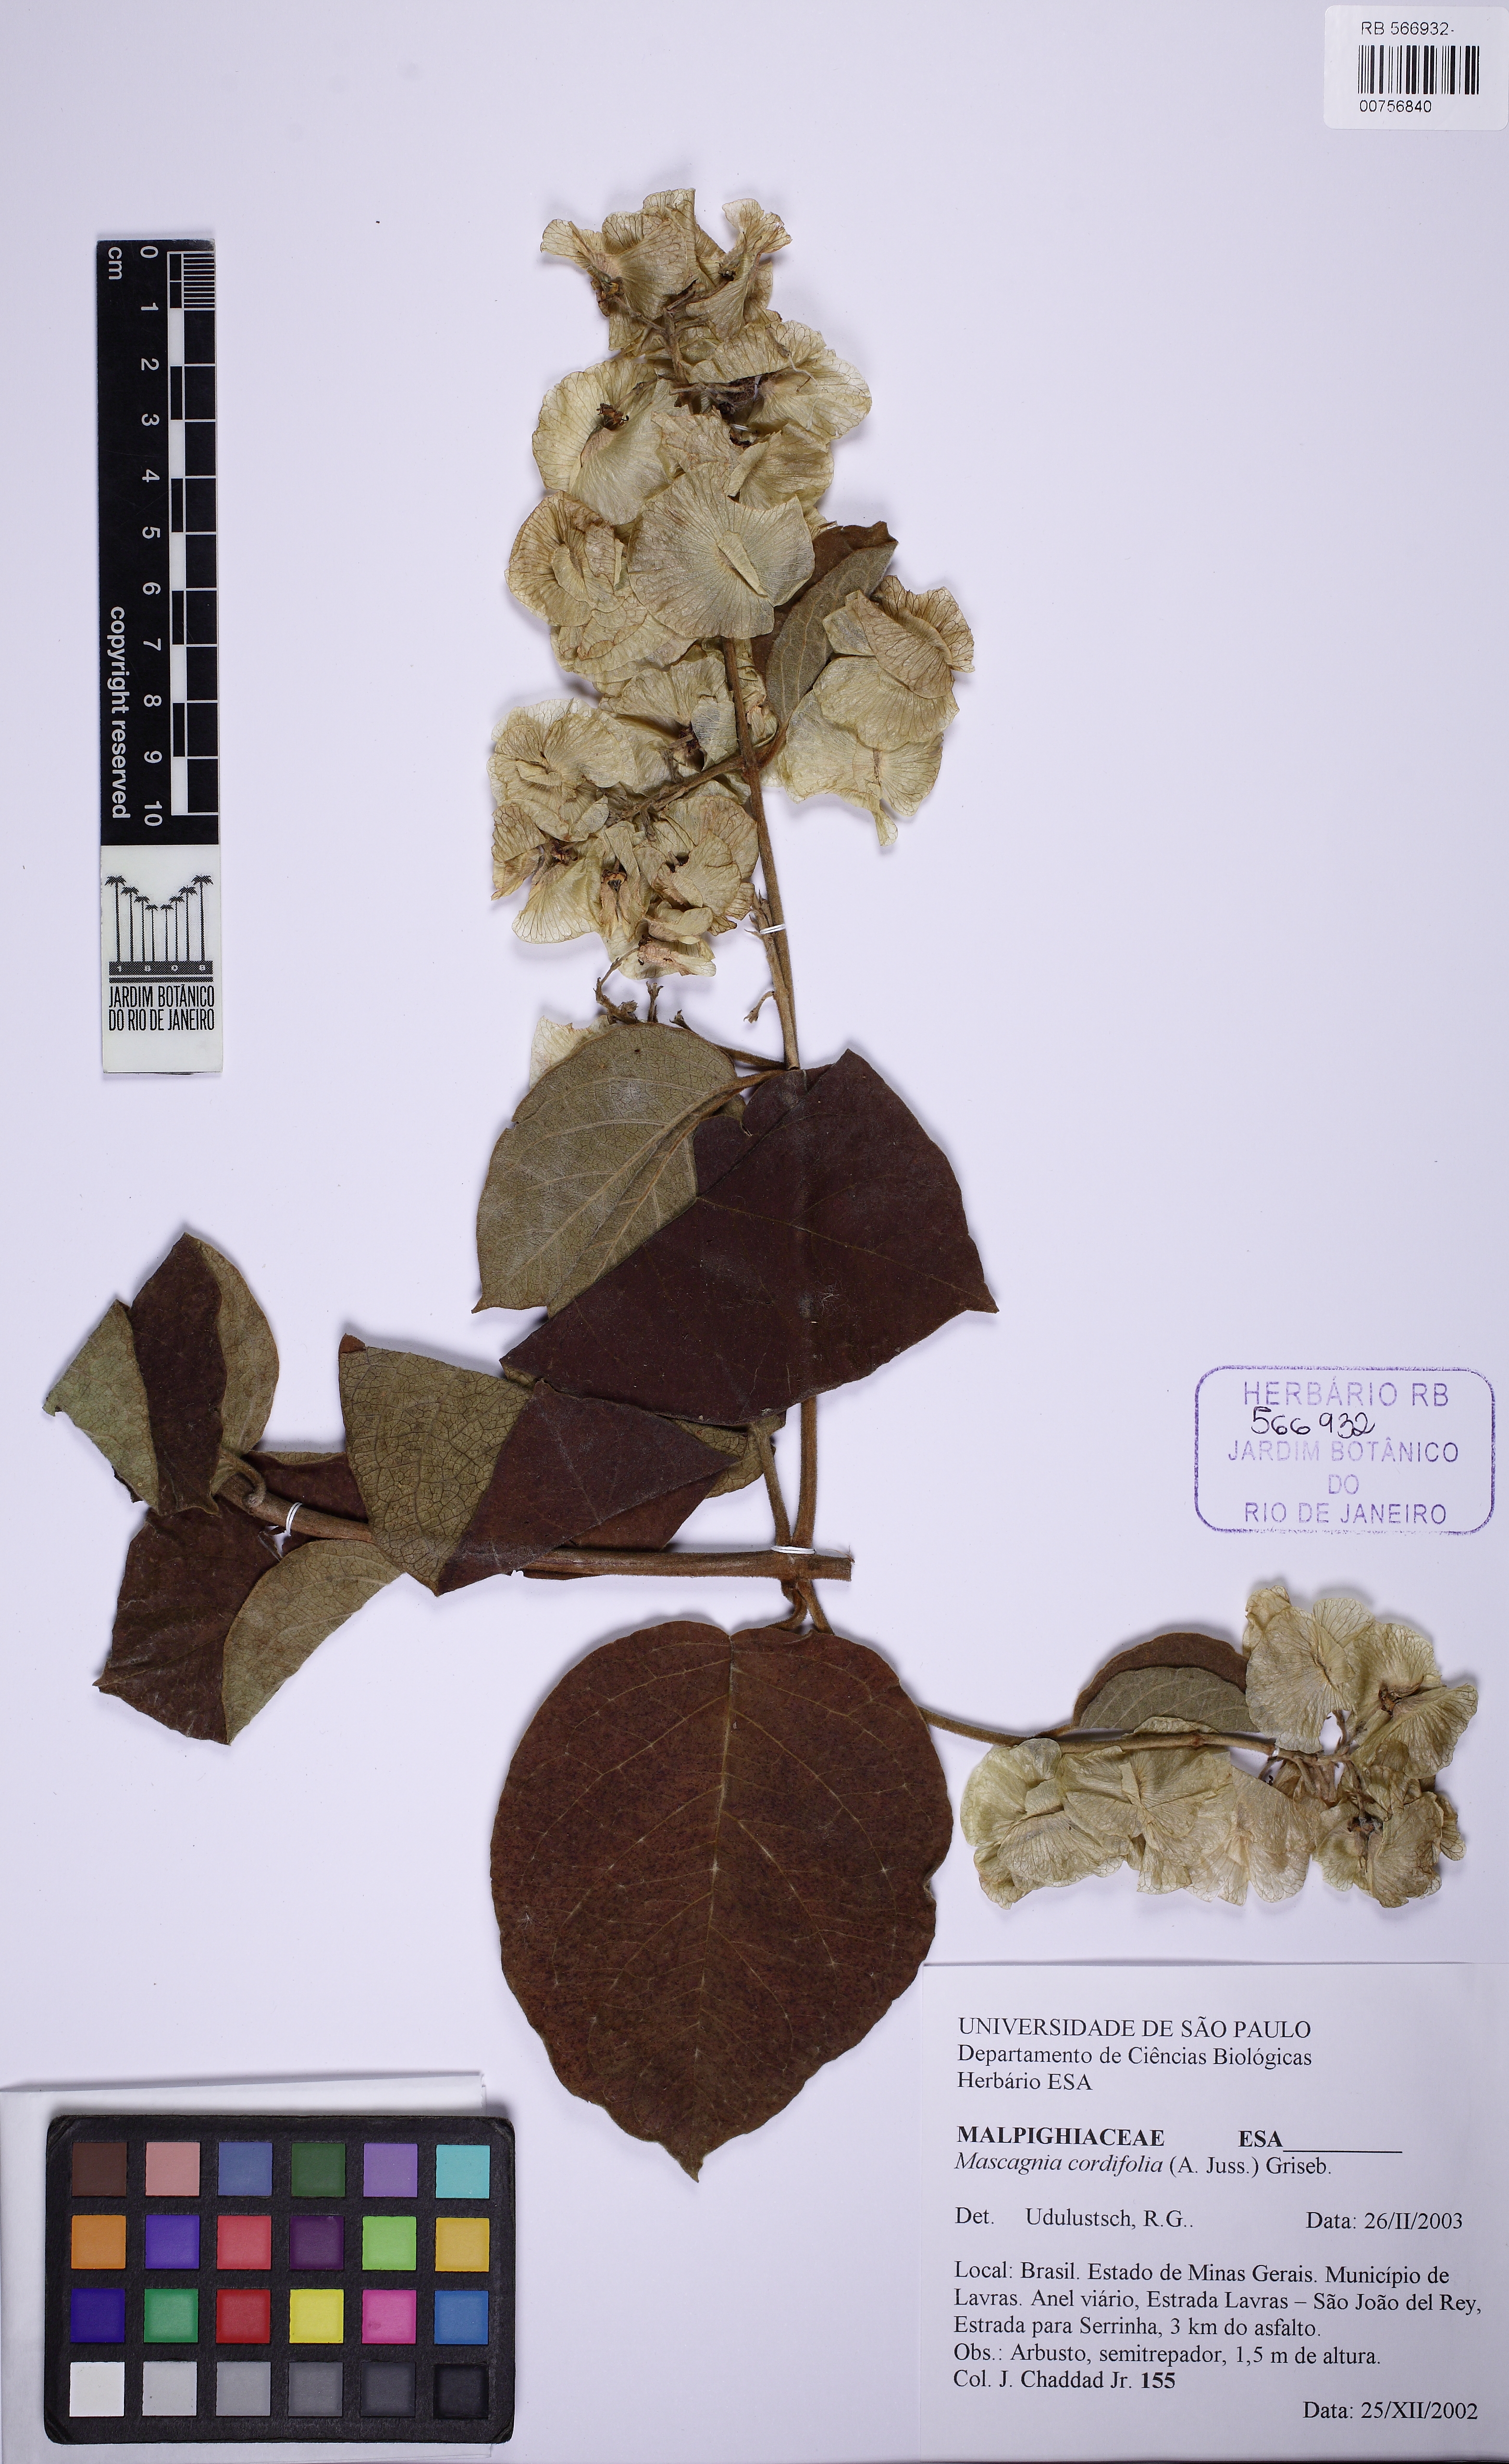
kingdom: Plantae
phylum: Tracheophyta
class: Magnoliopsida
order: Malpighiales
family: Malpighiaceae
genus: Mascagnia
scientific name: Mascagnia cordifolia
